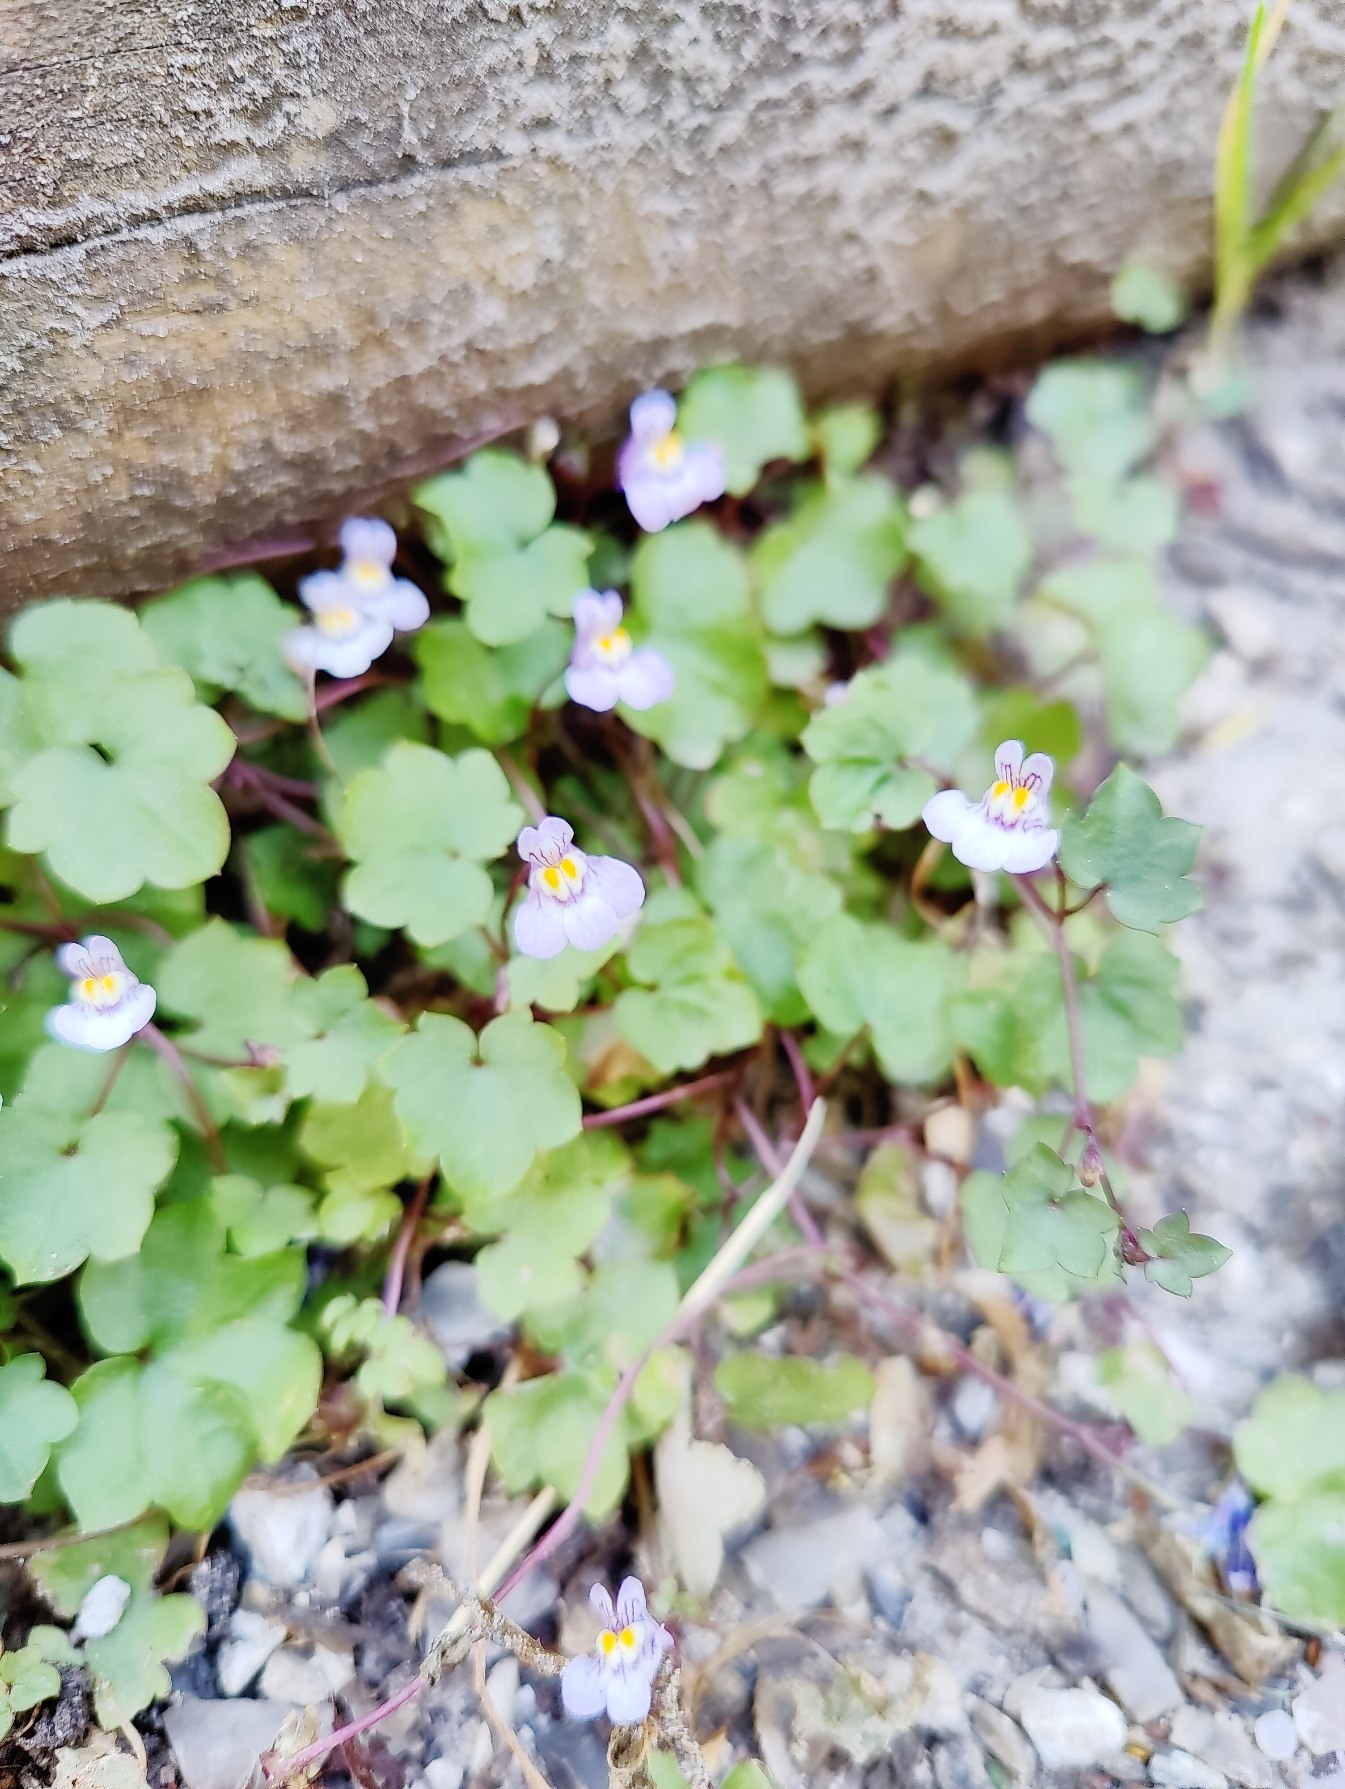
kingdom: Plantae
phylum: Tracheophyta
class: Magnoliopsida
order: Lamiales
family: Plantaginaceae
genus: Cymbalaria
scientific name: Cymbalaria muralis
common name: Vedbend-torskemund
